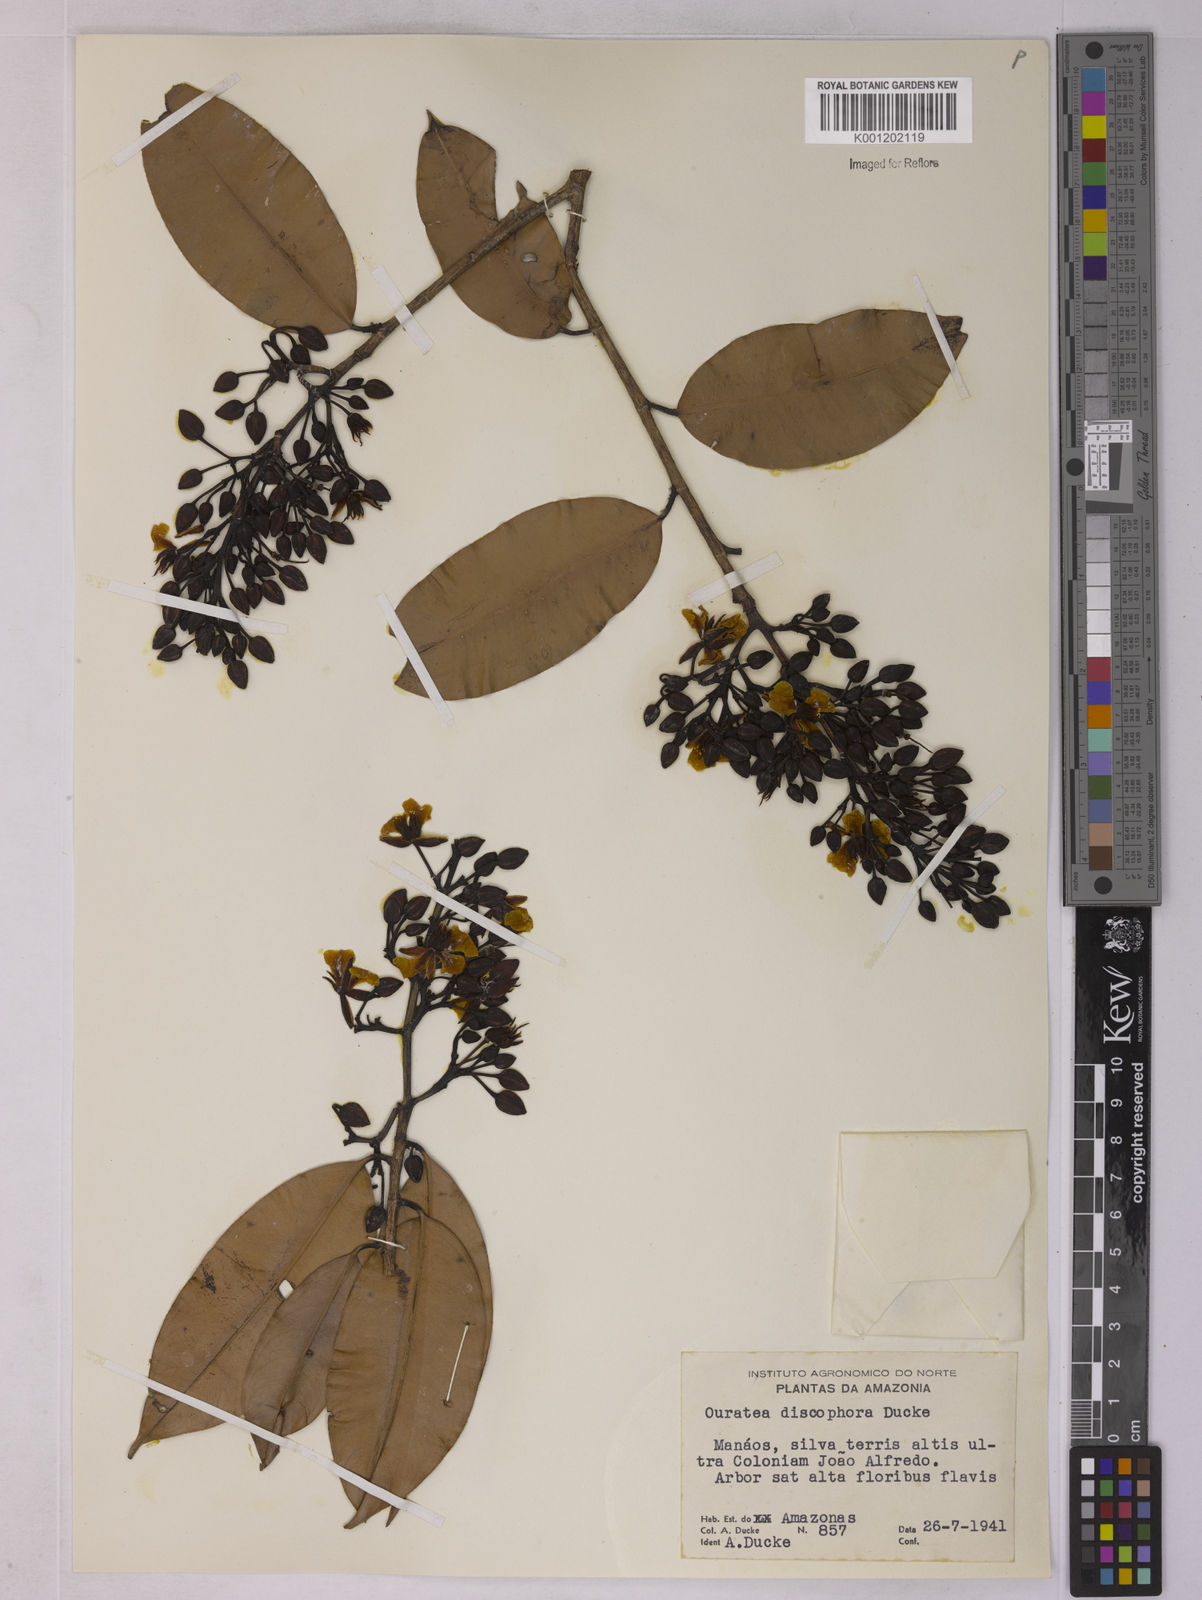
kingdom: Plantae
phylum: Tracheophyta
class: Magnoliopsida
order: Malpighiales
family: Ochnaceae
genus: Ouratea
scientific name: Ouratea discophora
